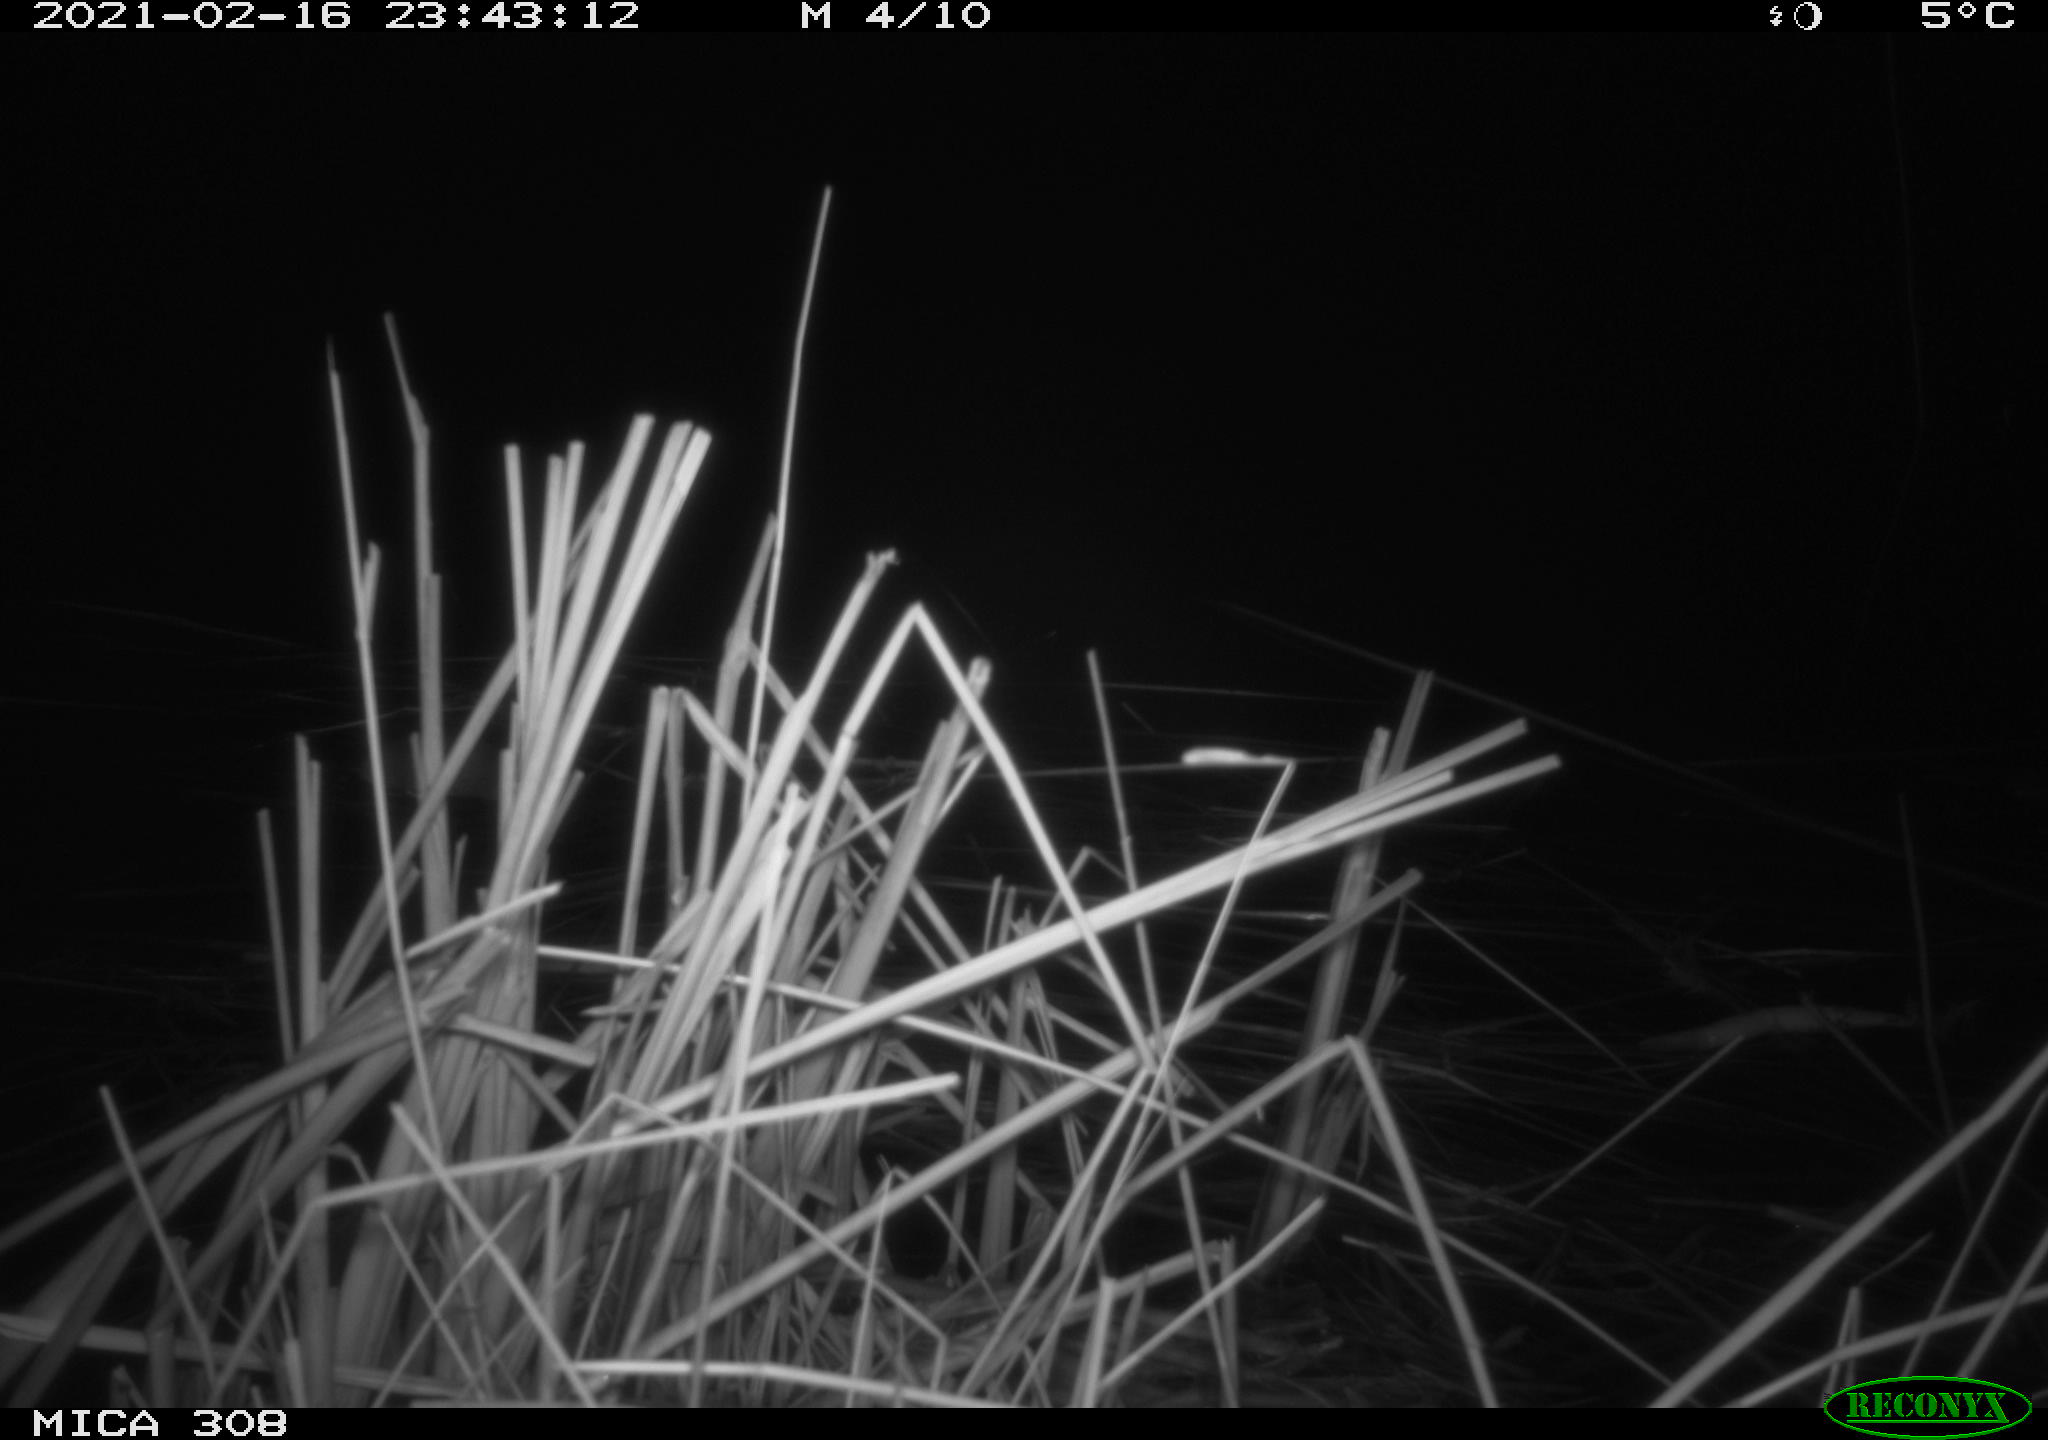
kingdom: Animalia
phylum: Chordata
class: Mammalia
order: Rodentia
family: Muridae
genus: Rattus
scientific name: Rattus norvegicus
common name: Brown rat
